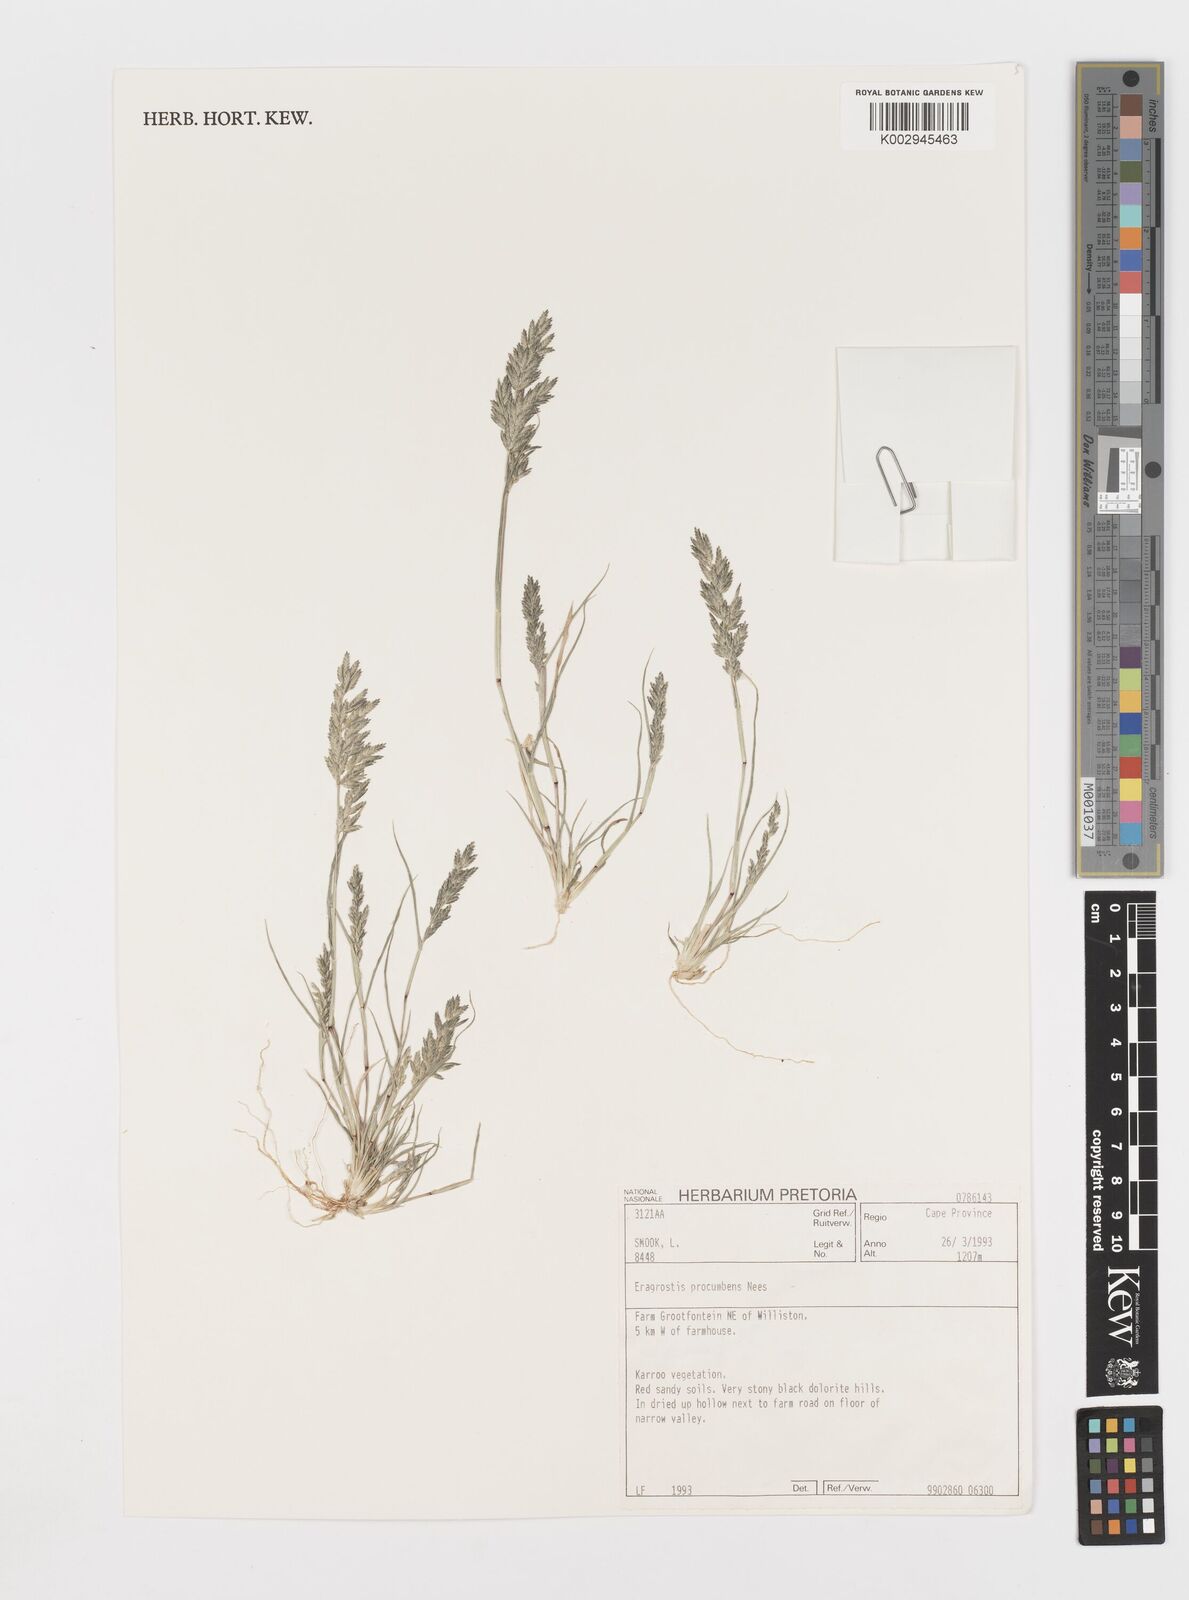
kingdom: Plantae
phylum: Tracheophyta
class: Liliopsida
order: Poales
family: Poaceae
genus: Eragrostis
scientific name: Eragrostis procumbens
